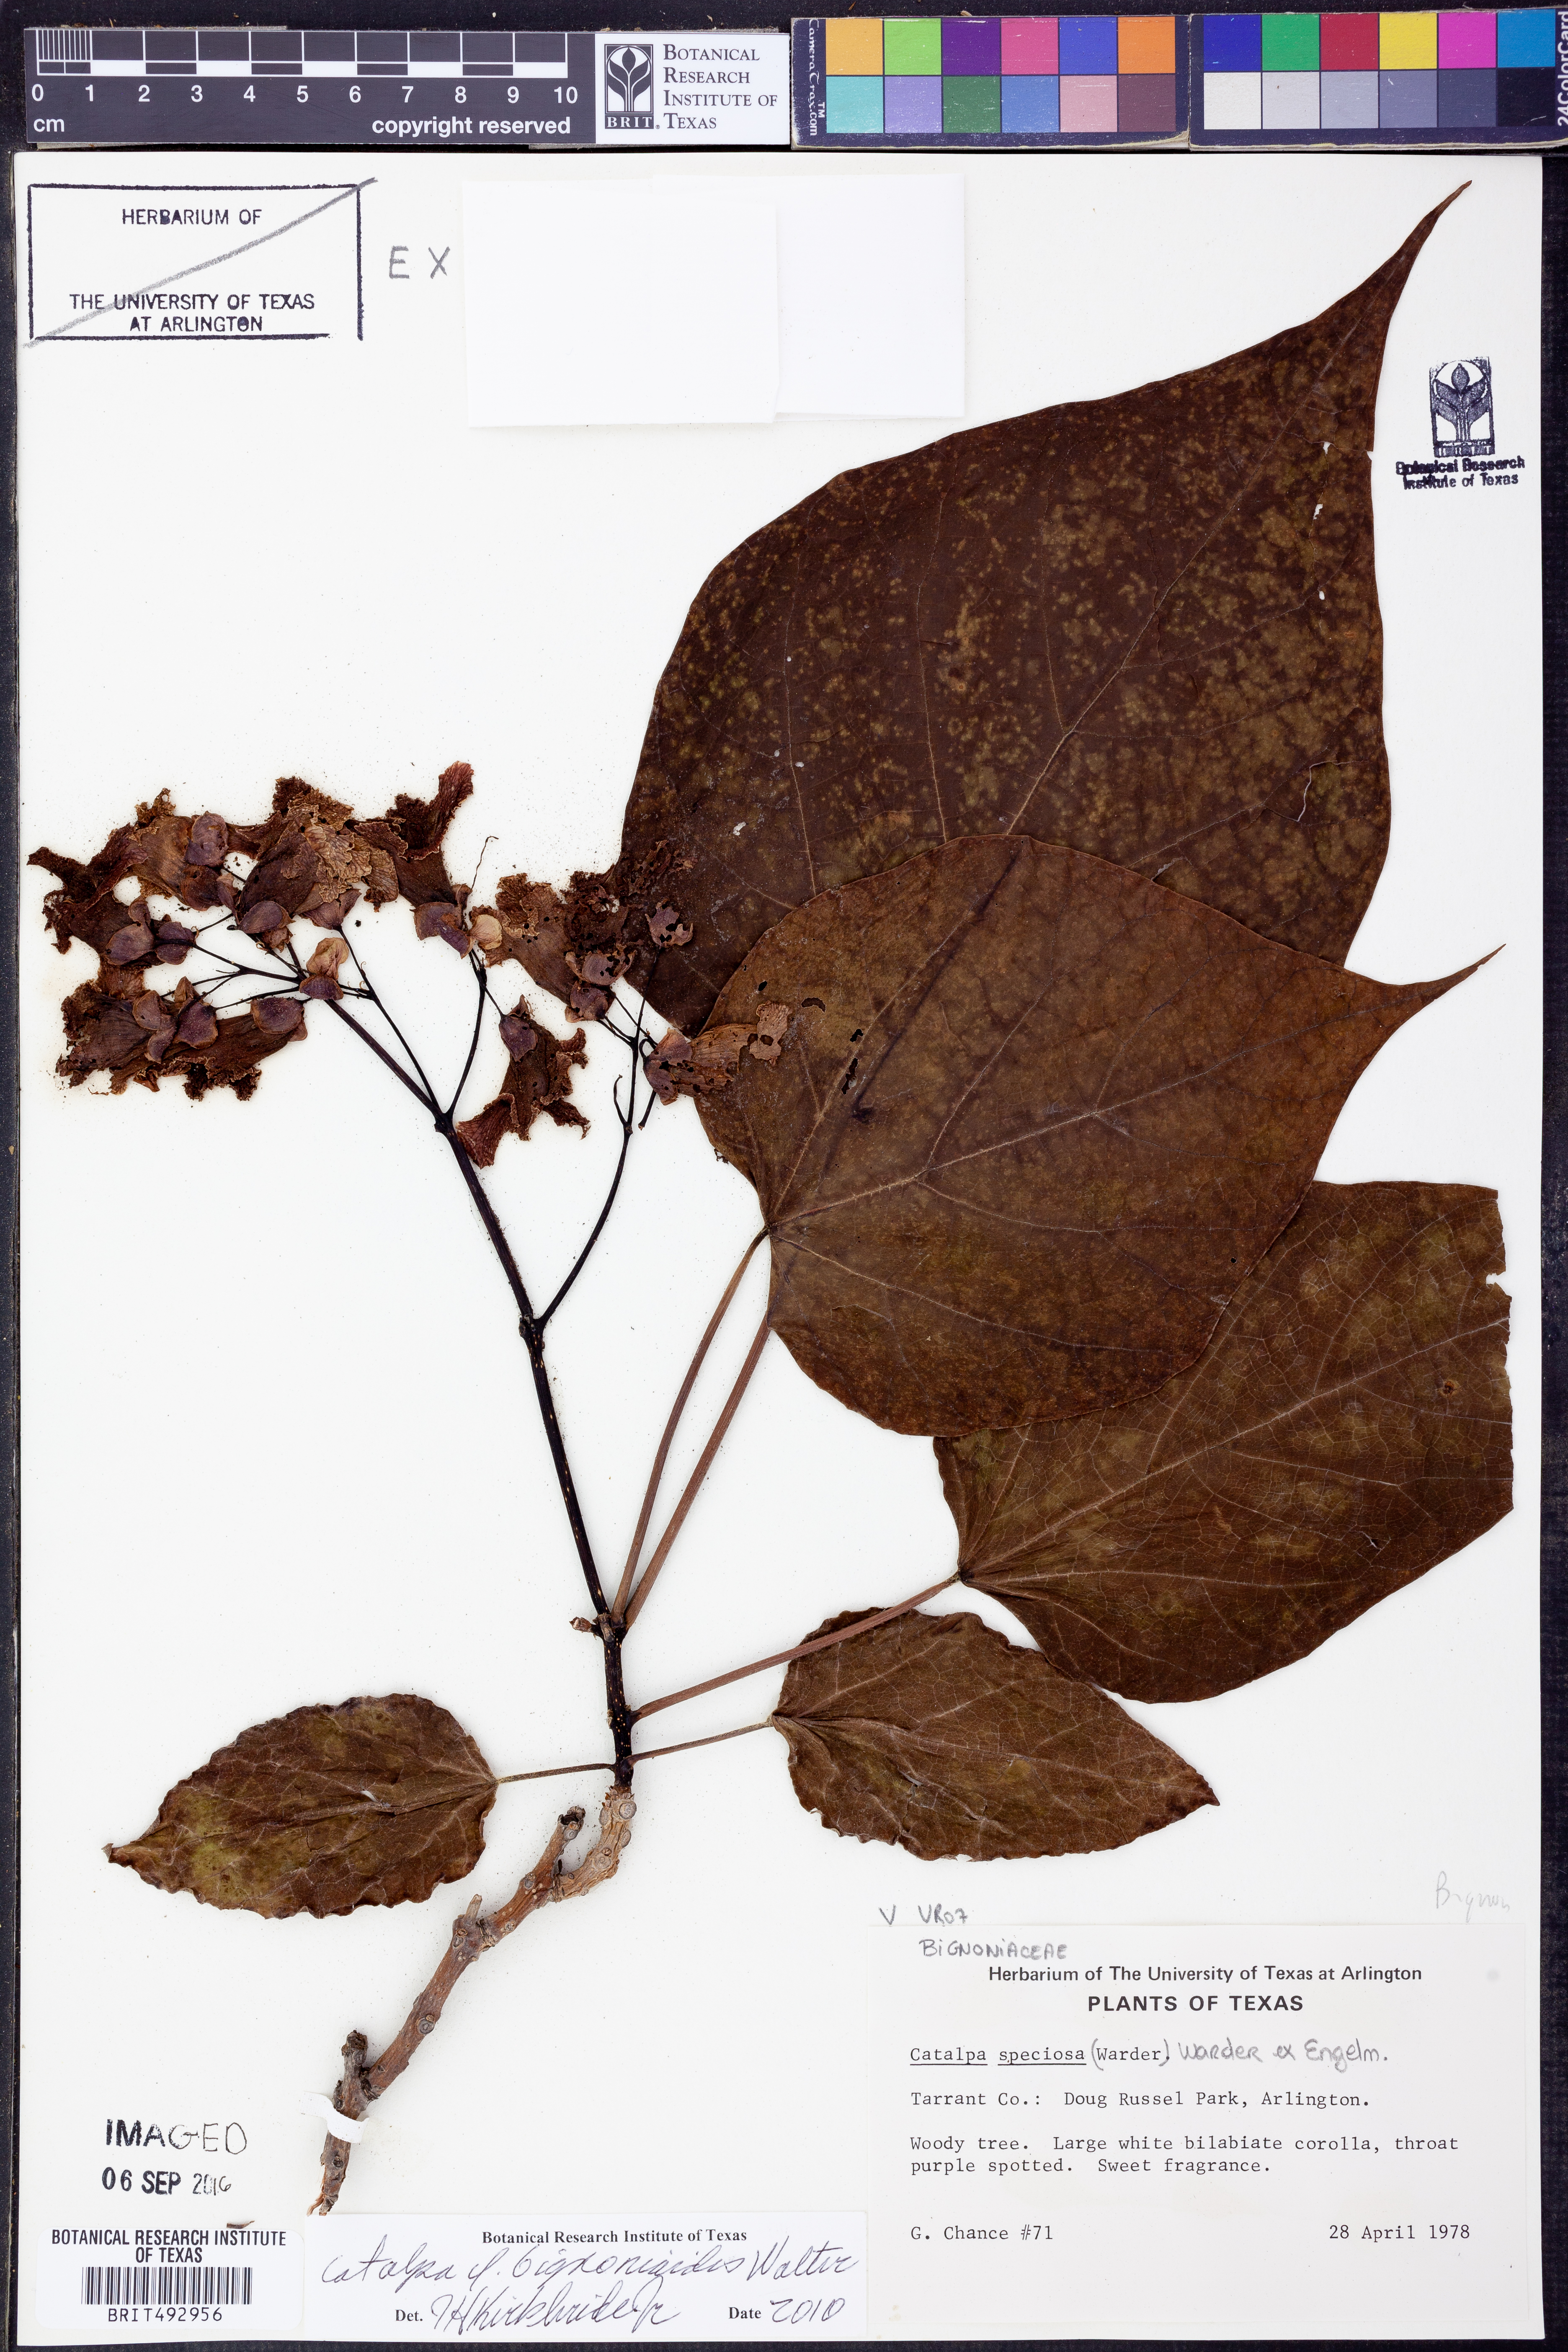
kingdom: Plantae
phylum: Tracheophyta
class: Magnoliopsida
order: Lamiales
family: Bignoniaceae
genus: Catalpa
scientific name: Catalpa bignonioides
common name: Southern catalpa
